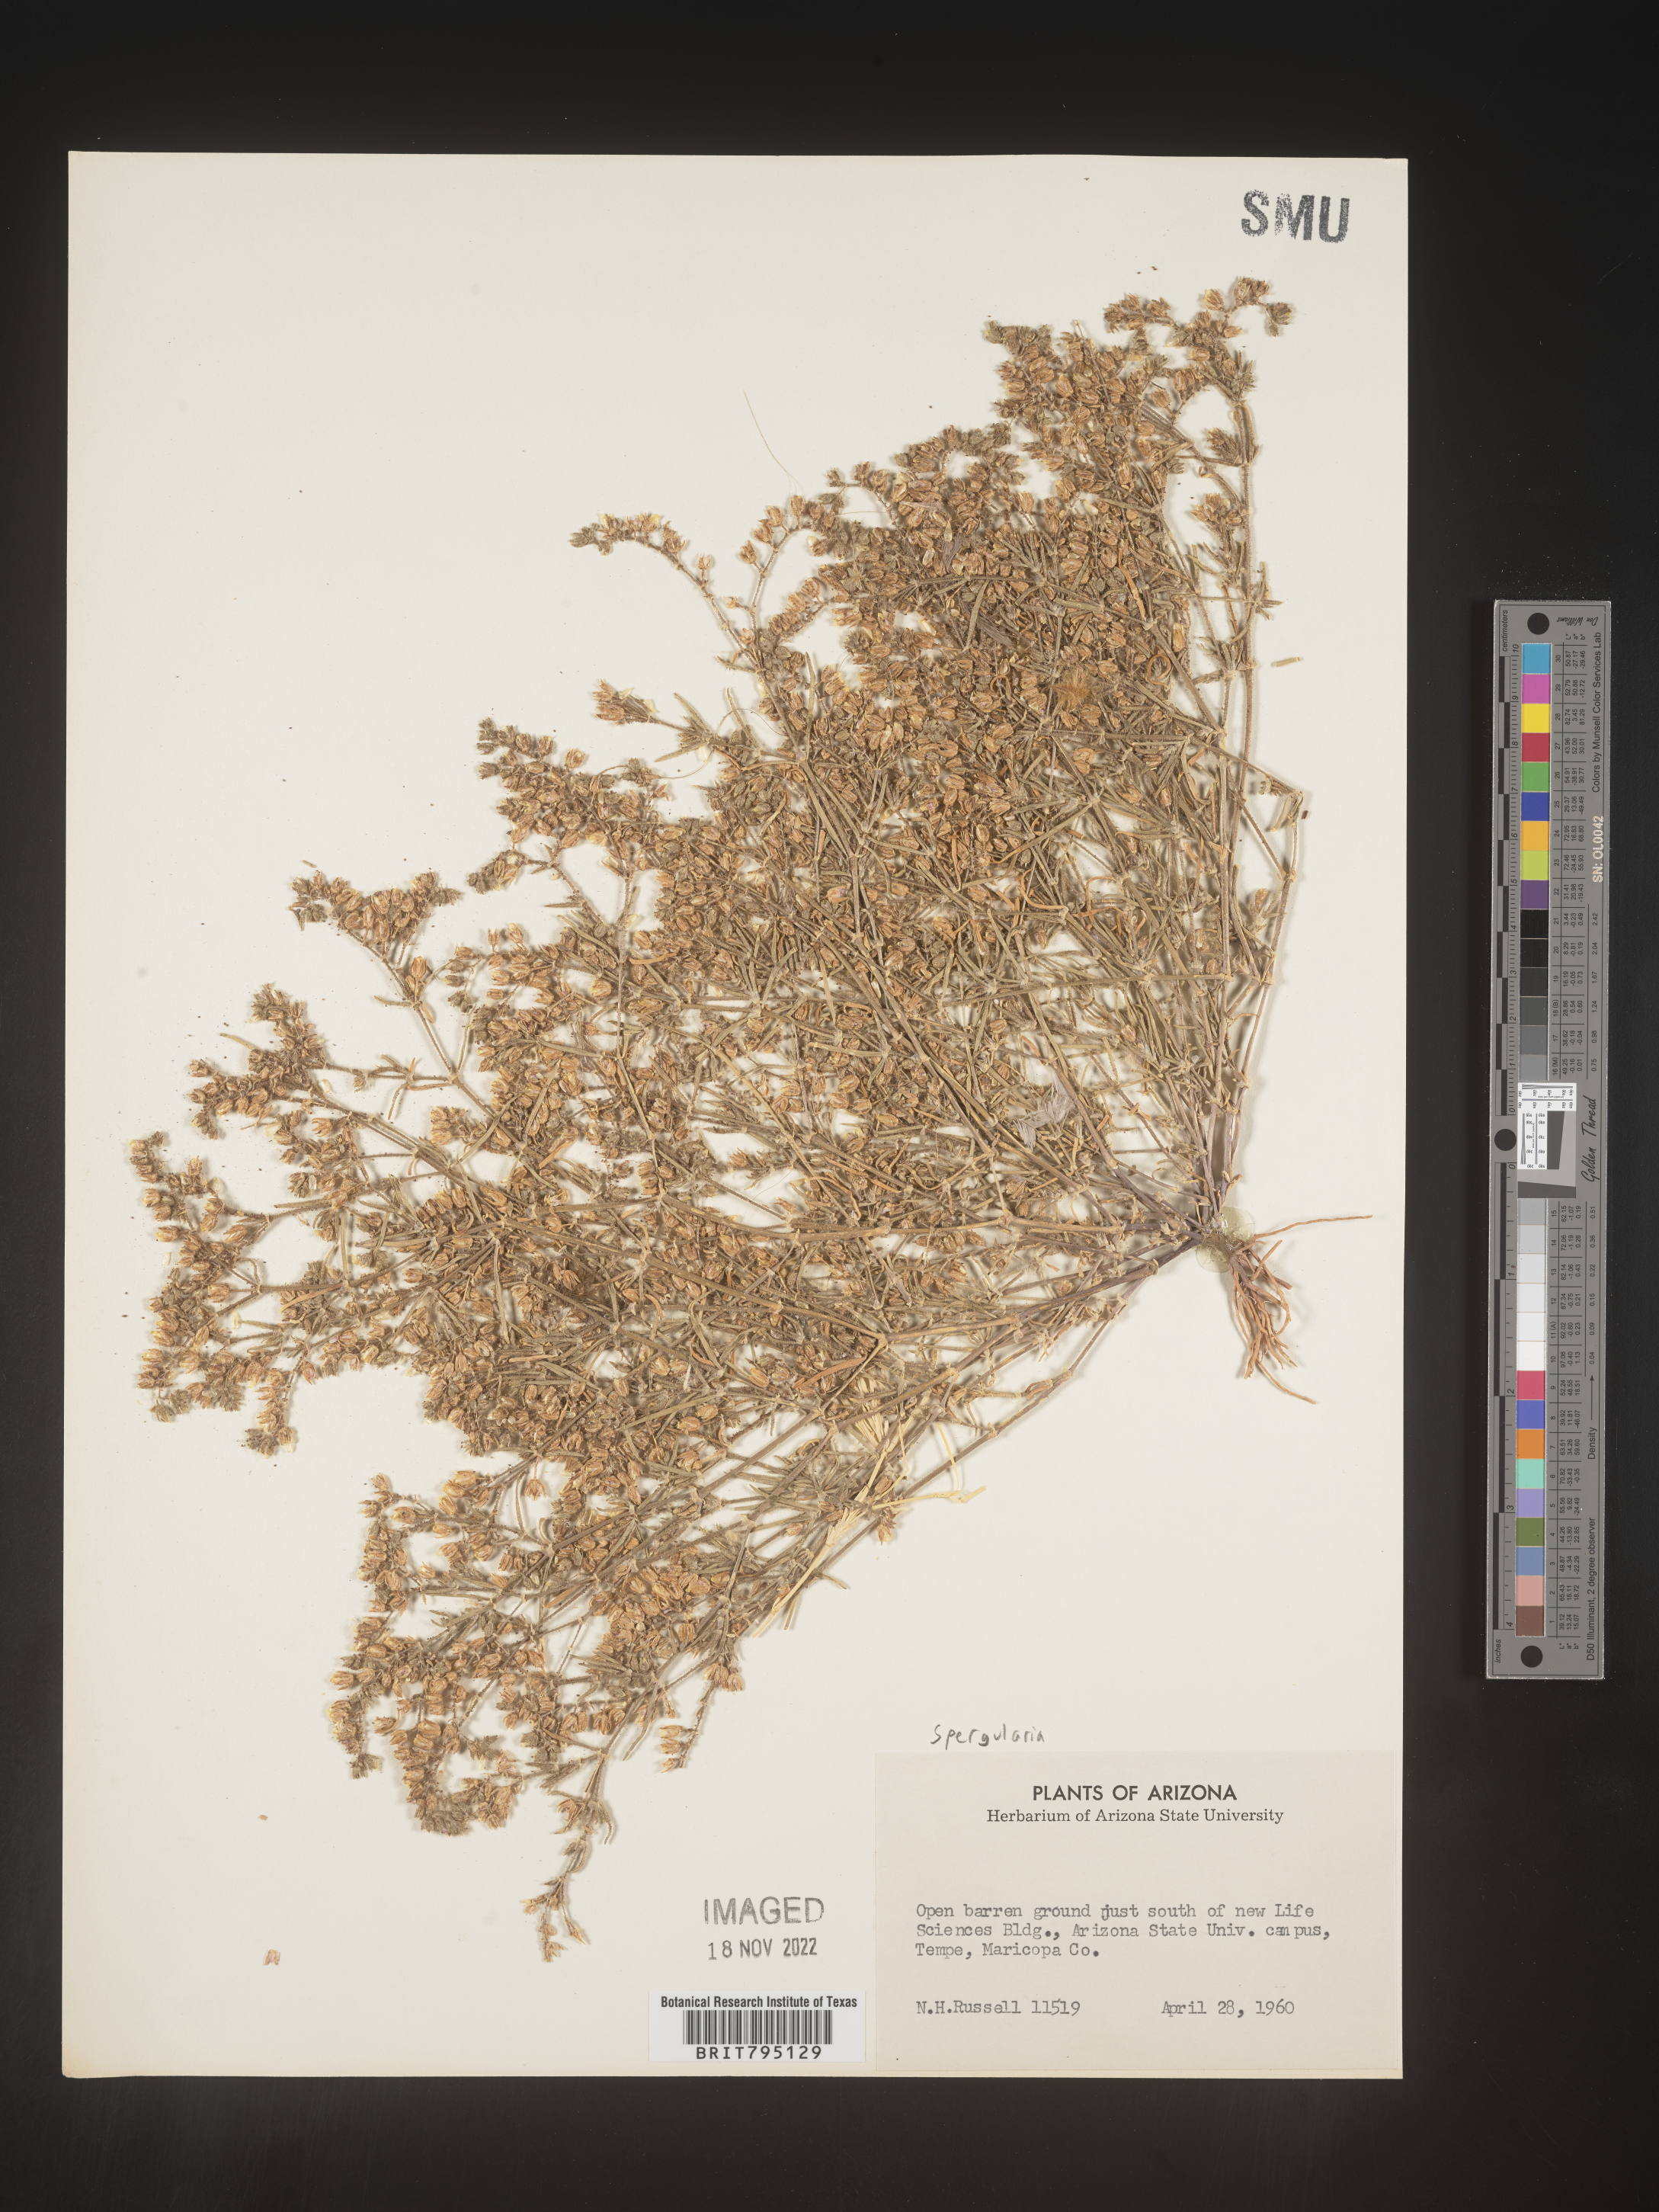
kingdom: Plantae
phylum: Tracheophyta
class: Magnoliopsida
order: Caryophyllales
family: Caryophyllaceae
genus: Spergularia
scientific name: Spergularia
